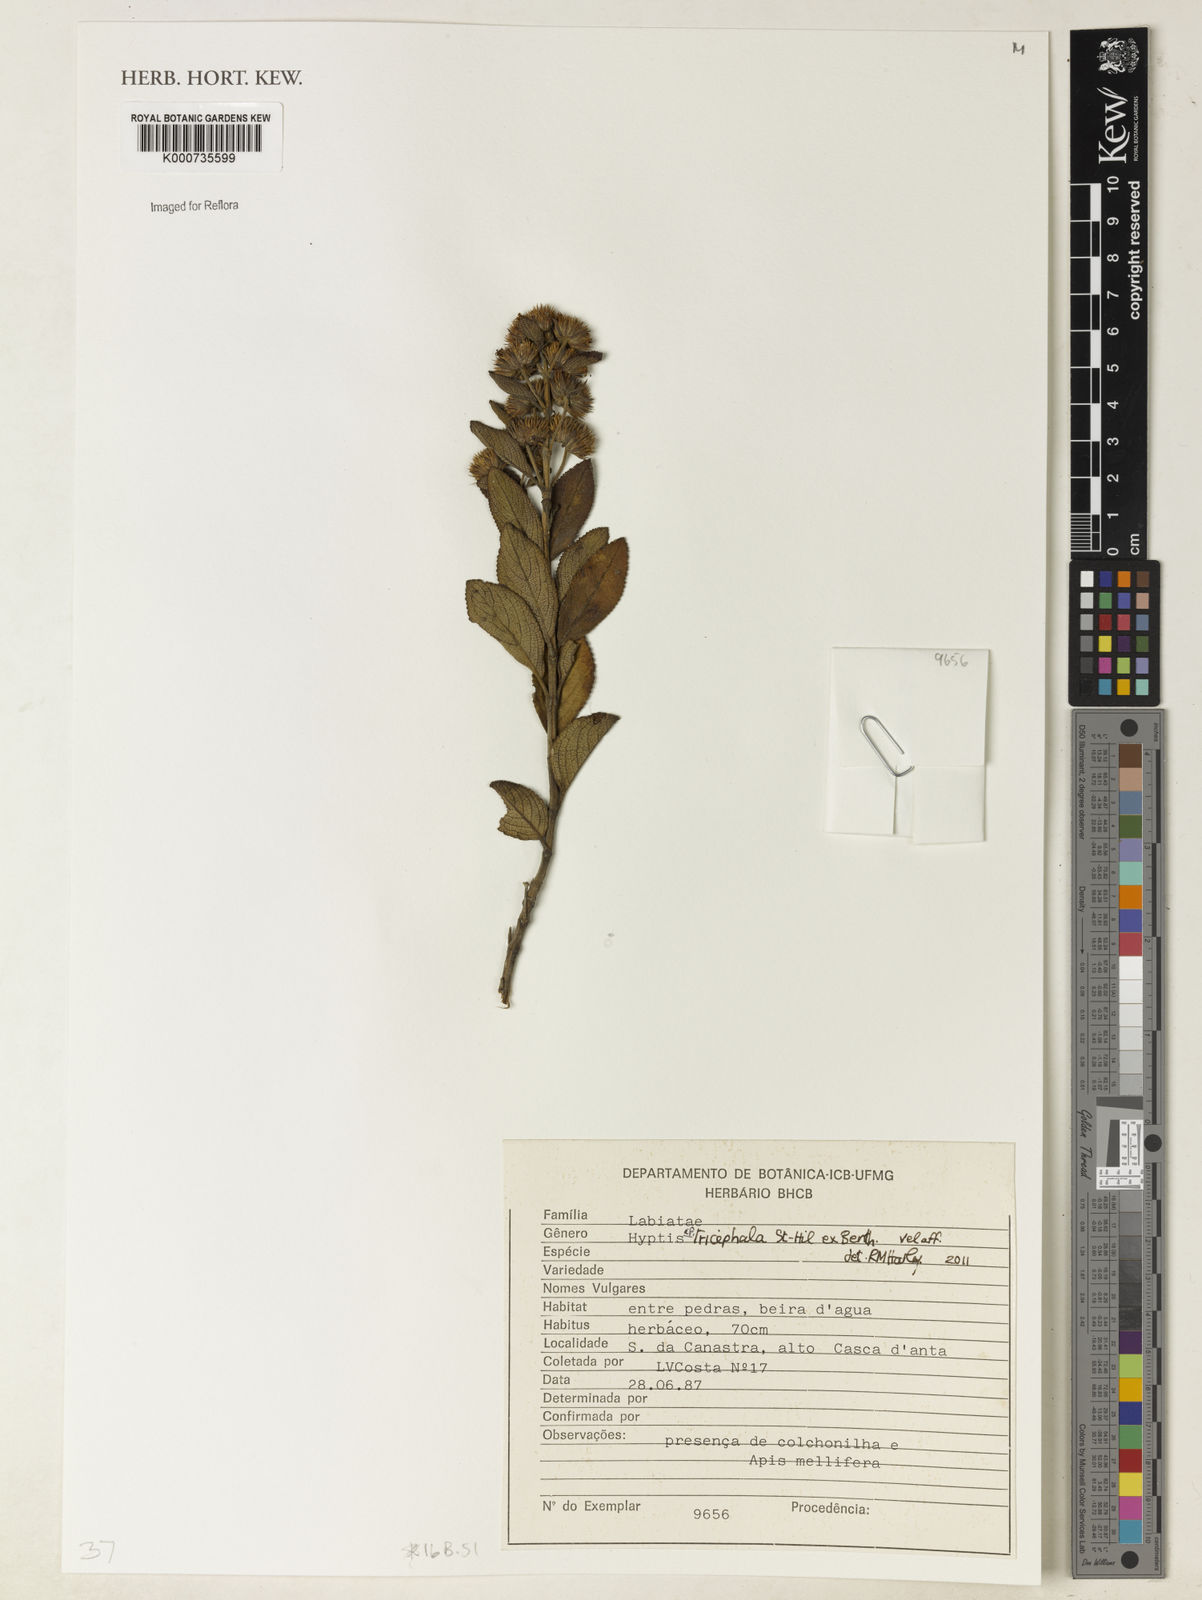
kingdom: Plantae
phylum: Tracheophyta
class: Magnoliopsida
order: Lamiales
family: Lamiaceae
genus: Hyptis
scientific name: Hyptis tricephala
